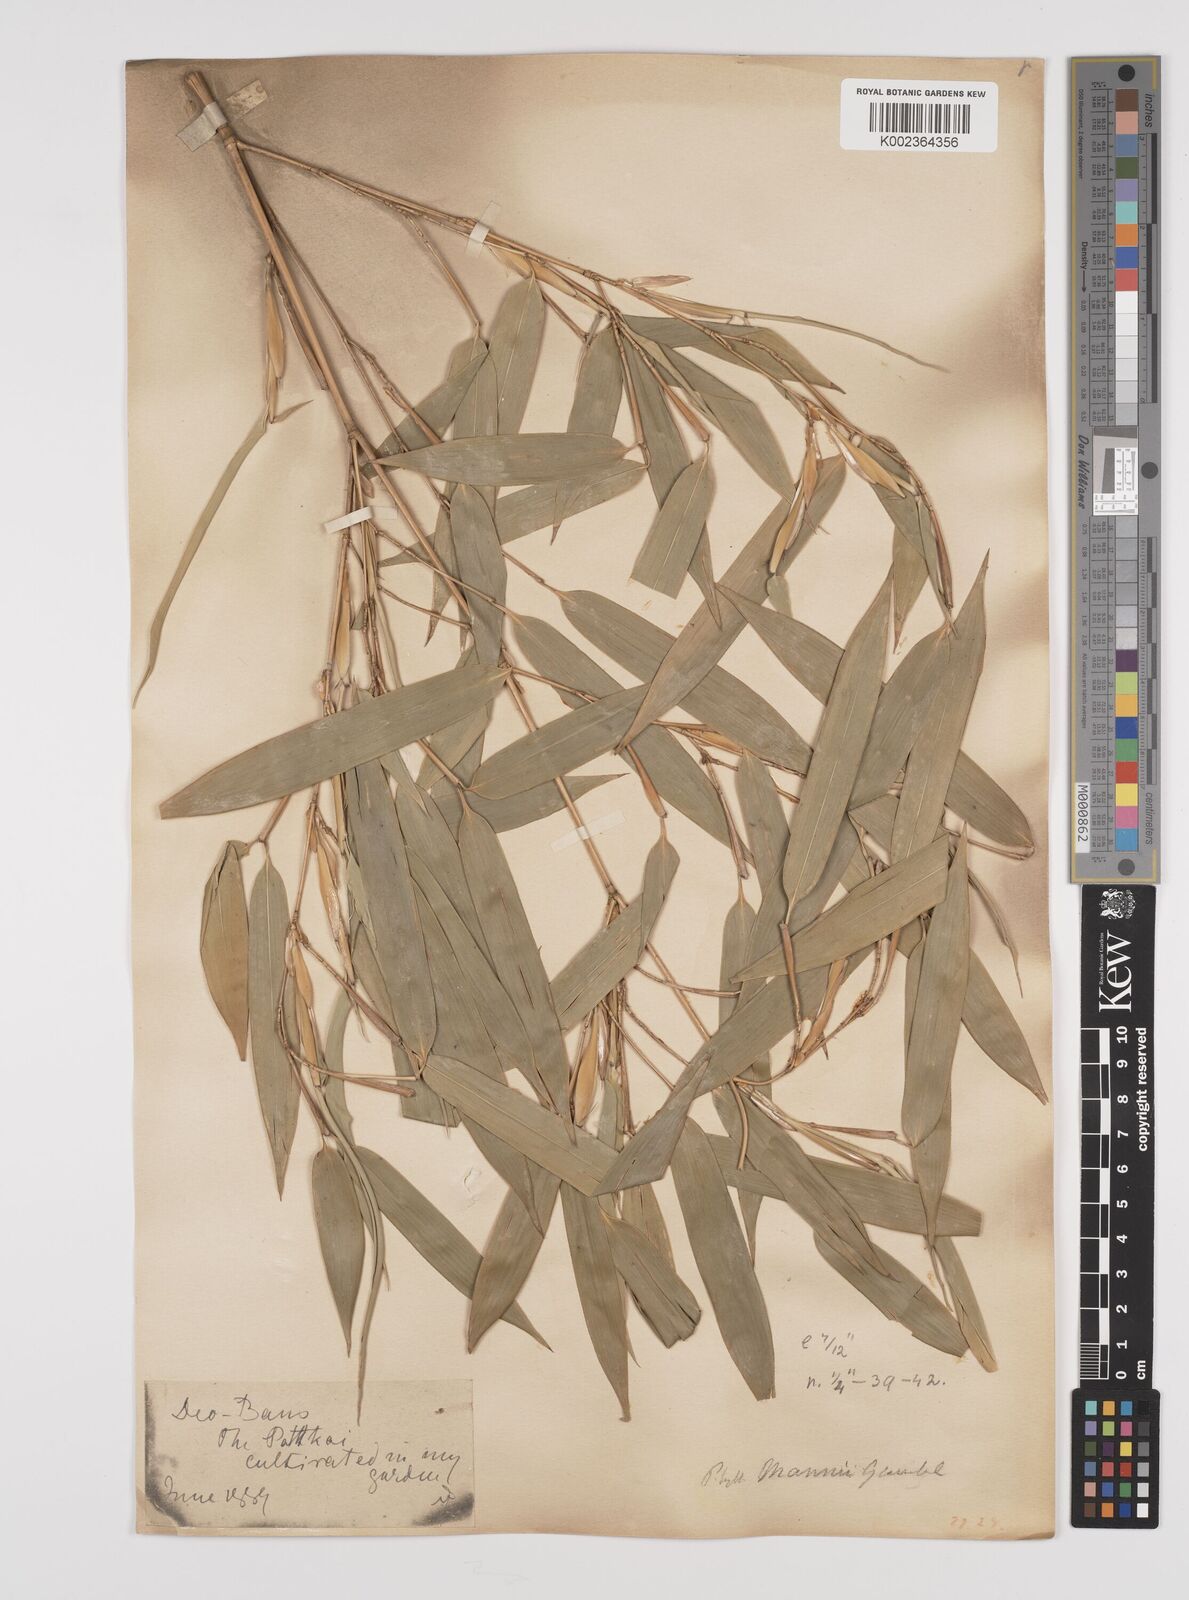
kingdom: Plantae
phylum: Tracheophyta
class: Liliopsida
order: Poales
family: Poaceae
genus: Phyllostachys
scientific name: Phyllostachys mannii
